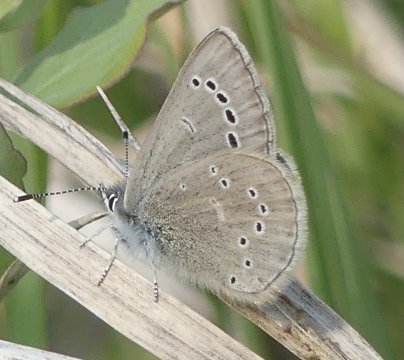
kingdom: Animalia
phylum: Arthropoda
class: Insecta
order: Lepidoptera
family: Lycaenidae
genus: Glaucopsyche
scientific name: Glaucopsyche lygdamus
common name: Silvery Blue
